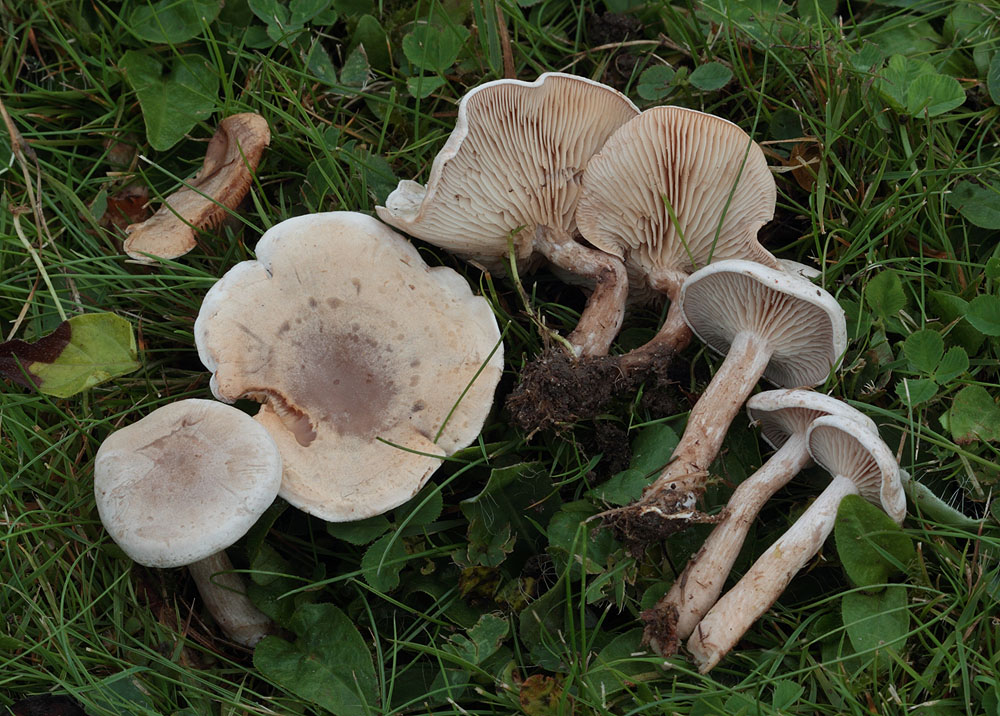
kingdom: Fungi
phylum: Basidiomycota
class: Agaricomycetes
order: Agaricales
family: Tricholomataceae
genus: Clitocybe
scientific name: Clitocybe rivulosa
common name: eng-tragthat
